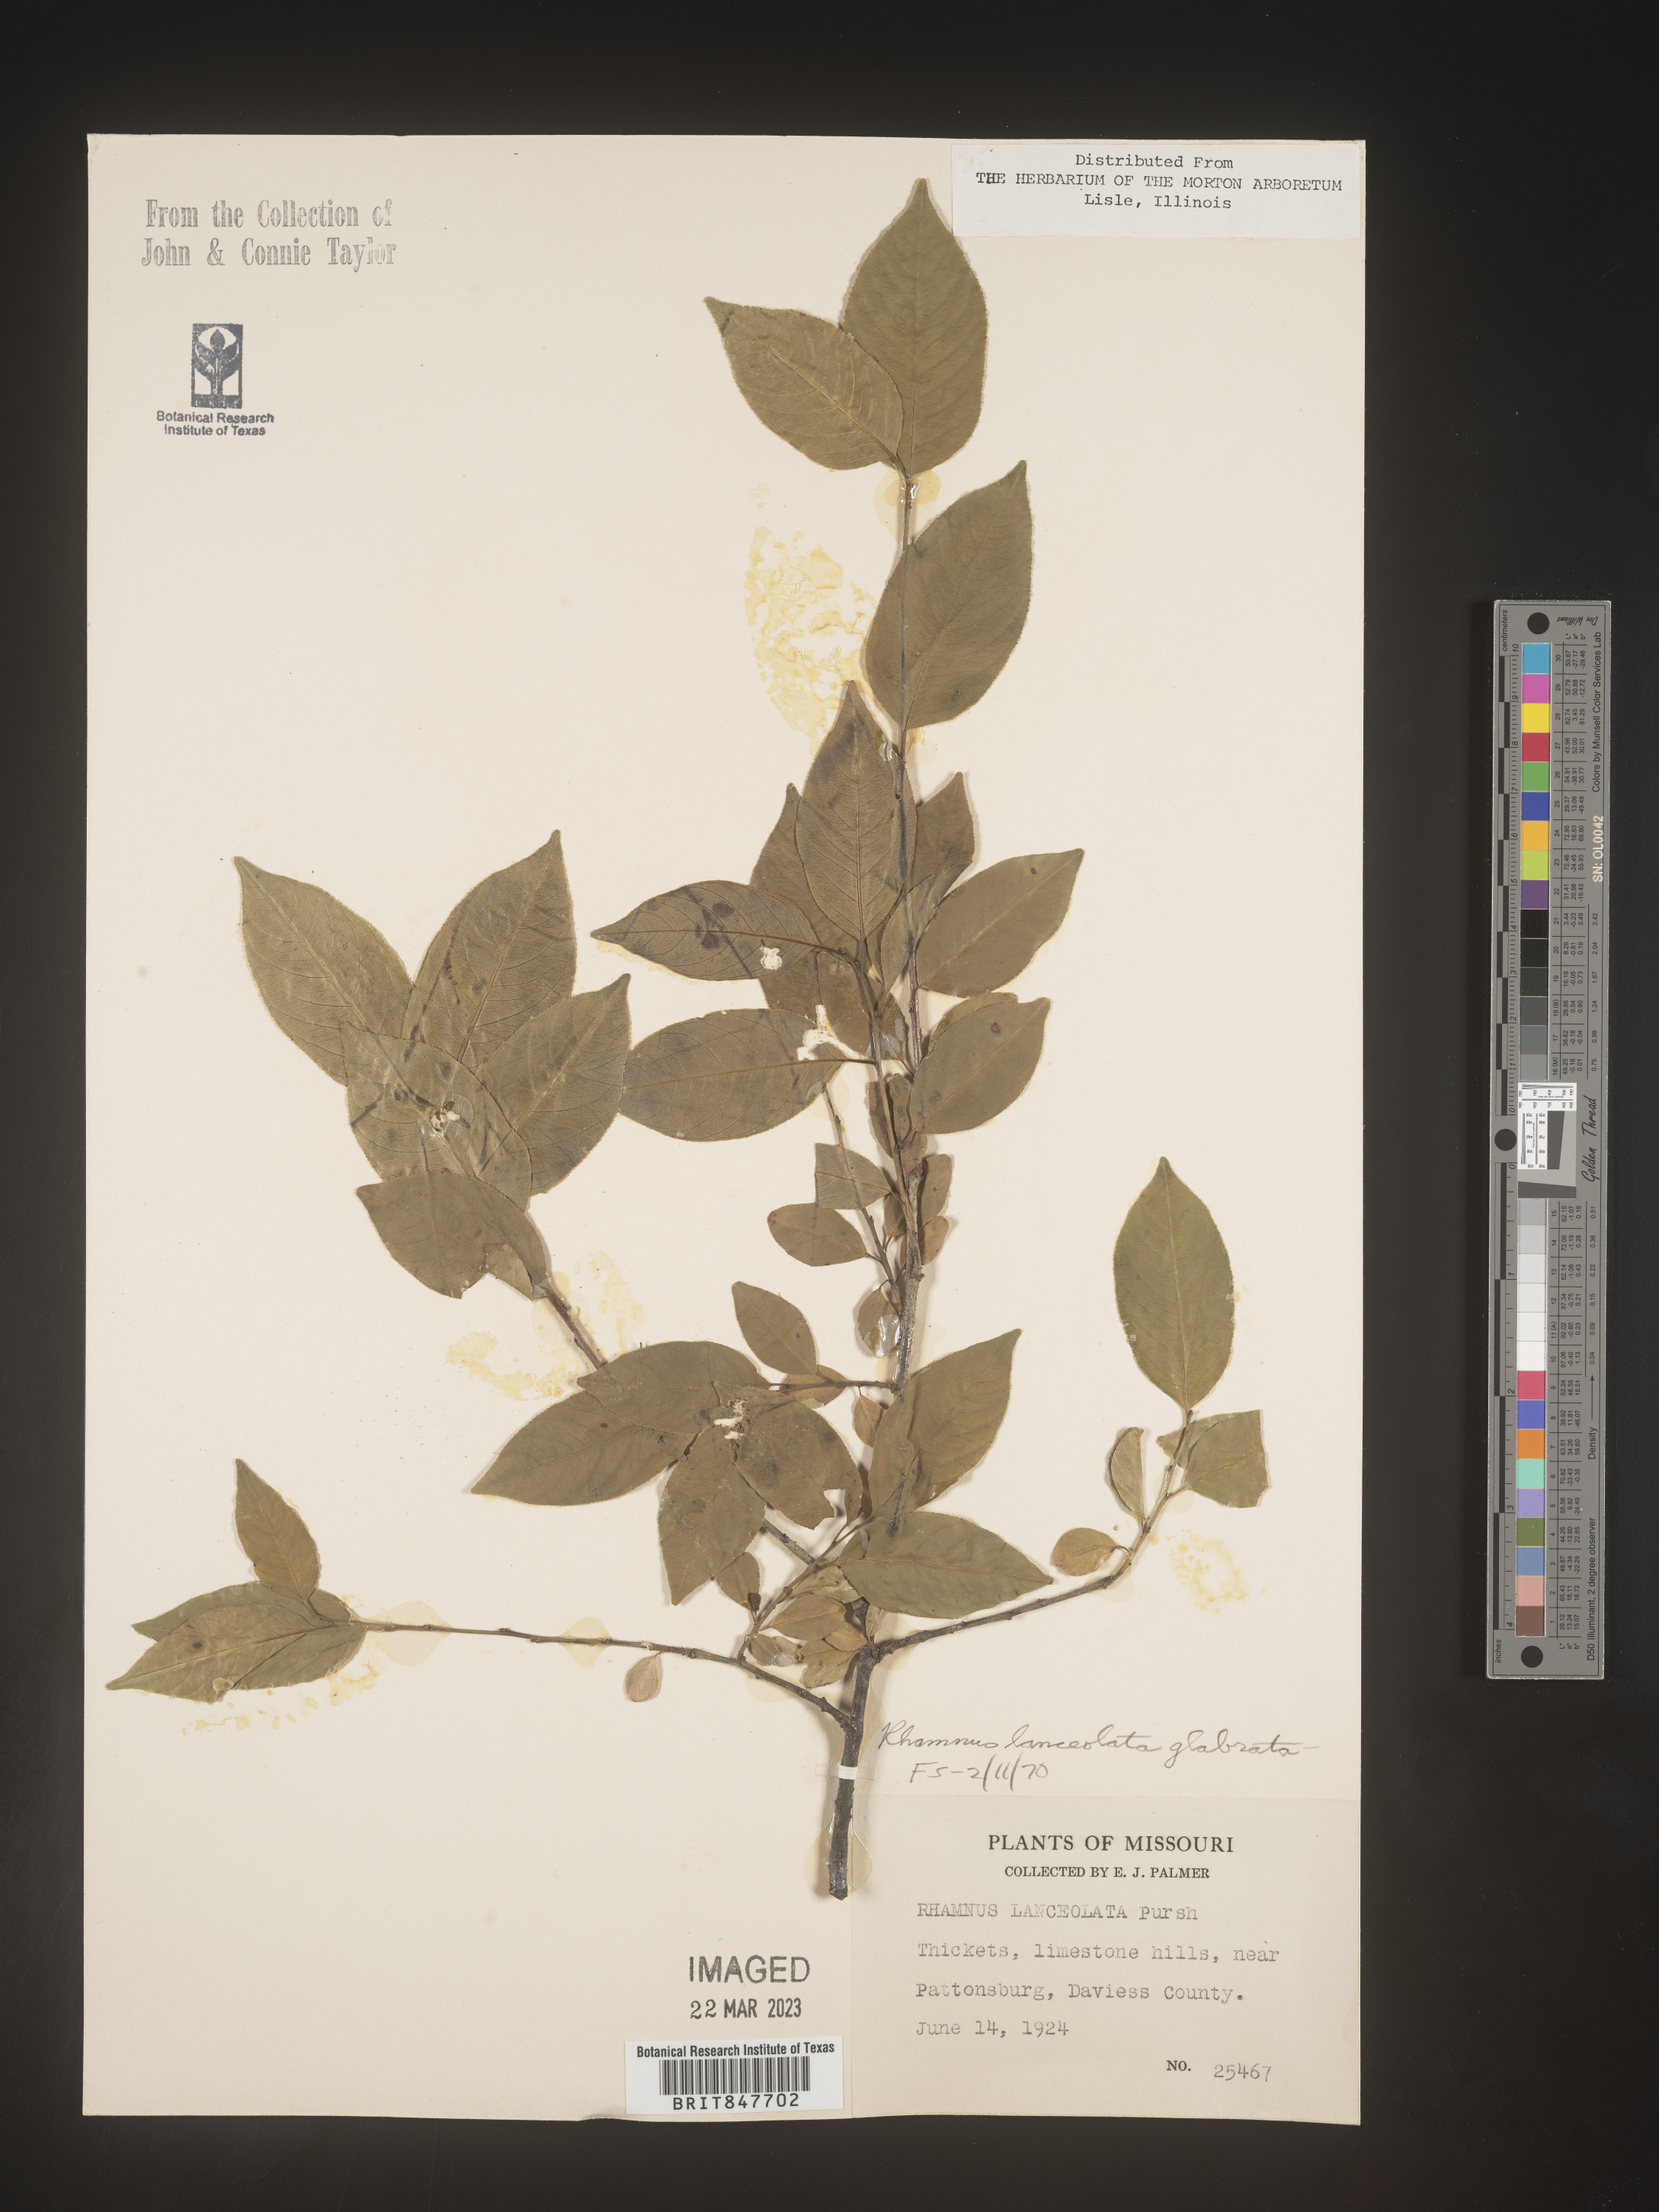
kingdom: Plantae
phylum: Tracheophyta
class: Magnoliopsida
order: Rosales
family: Rhamnaceae
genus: Endotropis
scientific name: Endotropis lanceolata
